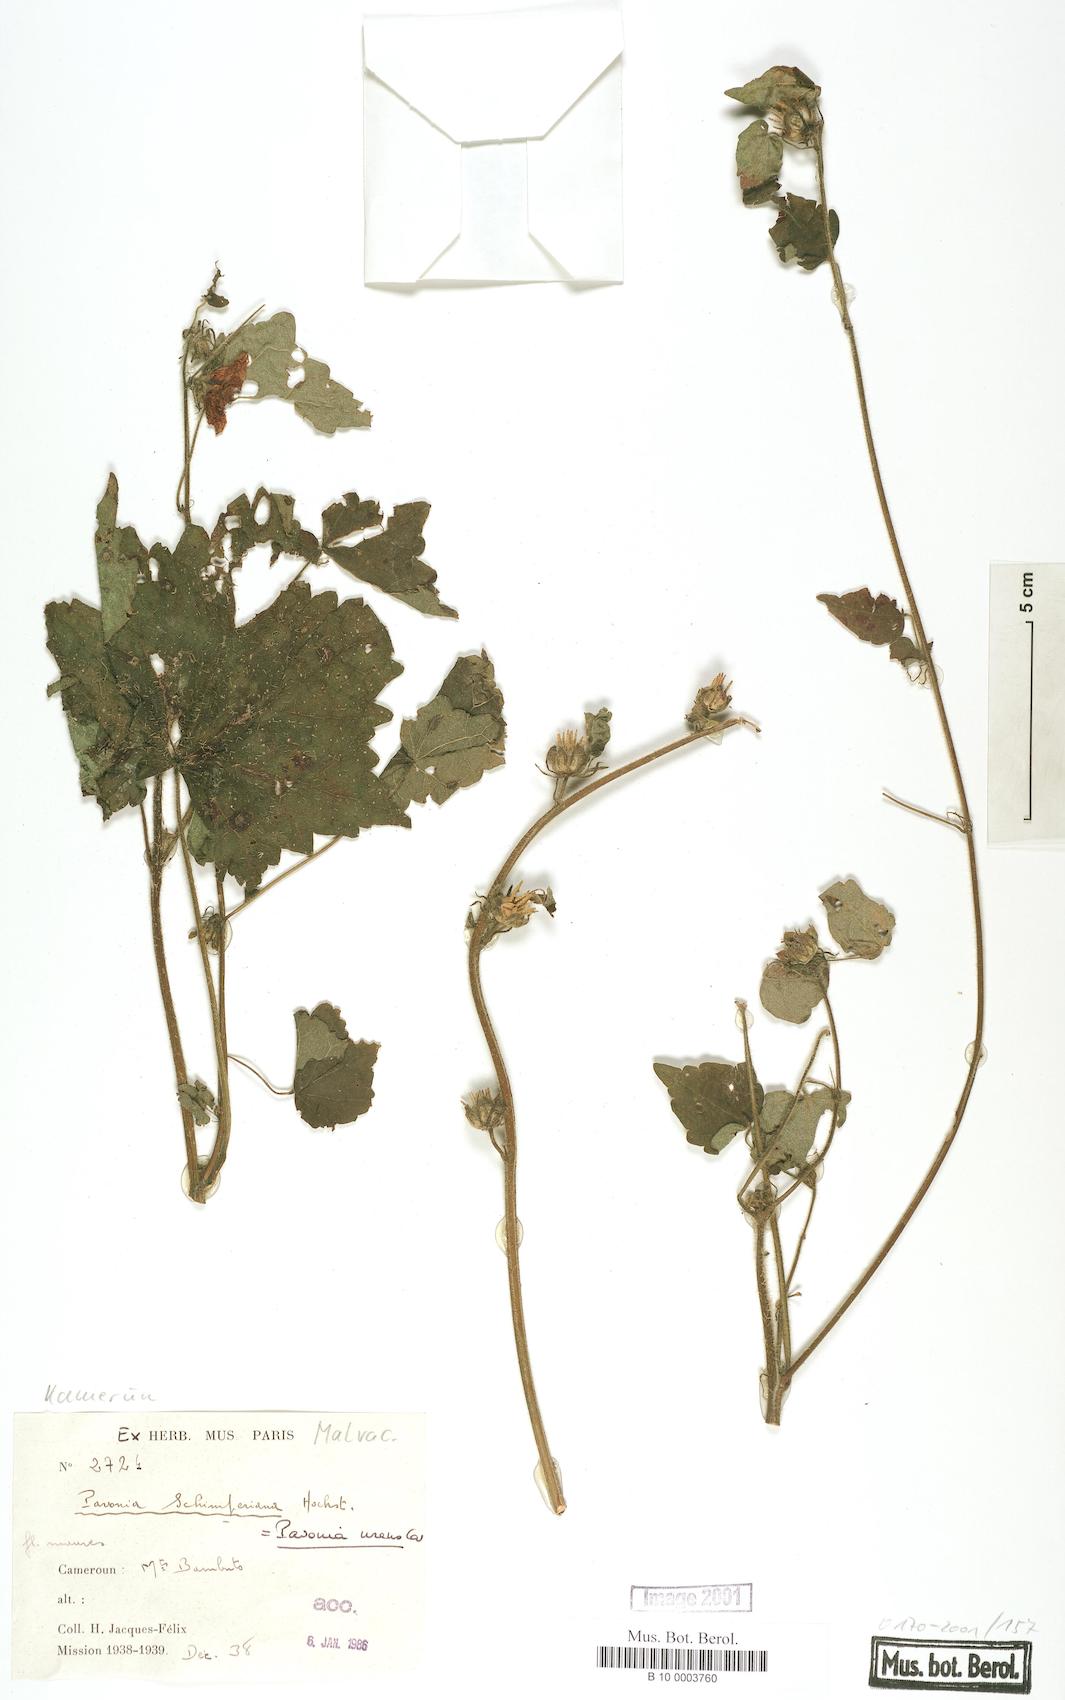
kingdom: Plantae
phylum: Tracheophyta
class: Magnoliopsida
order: Malvales
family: Malvaceae
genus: Pavonia
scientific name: Pavonia schimperiana
